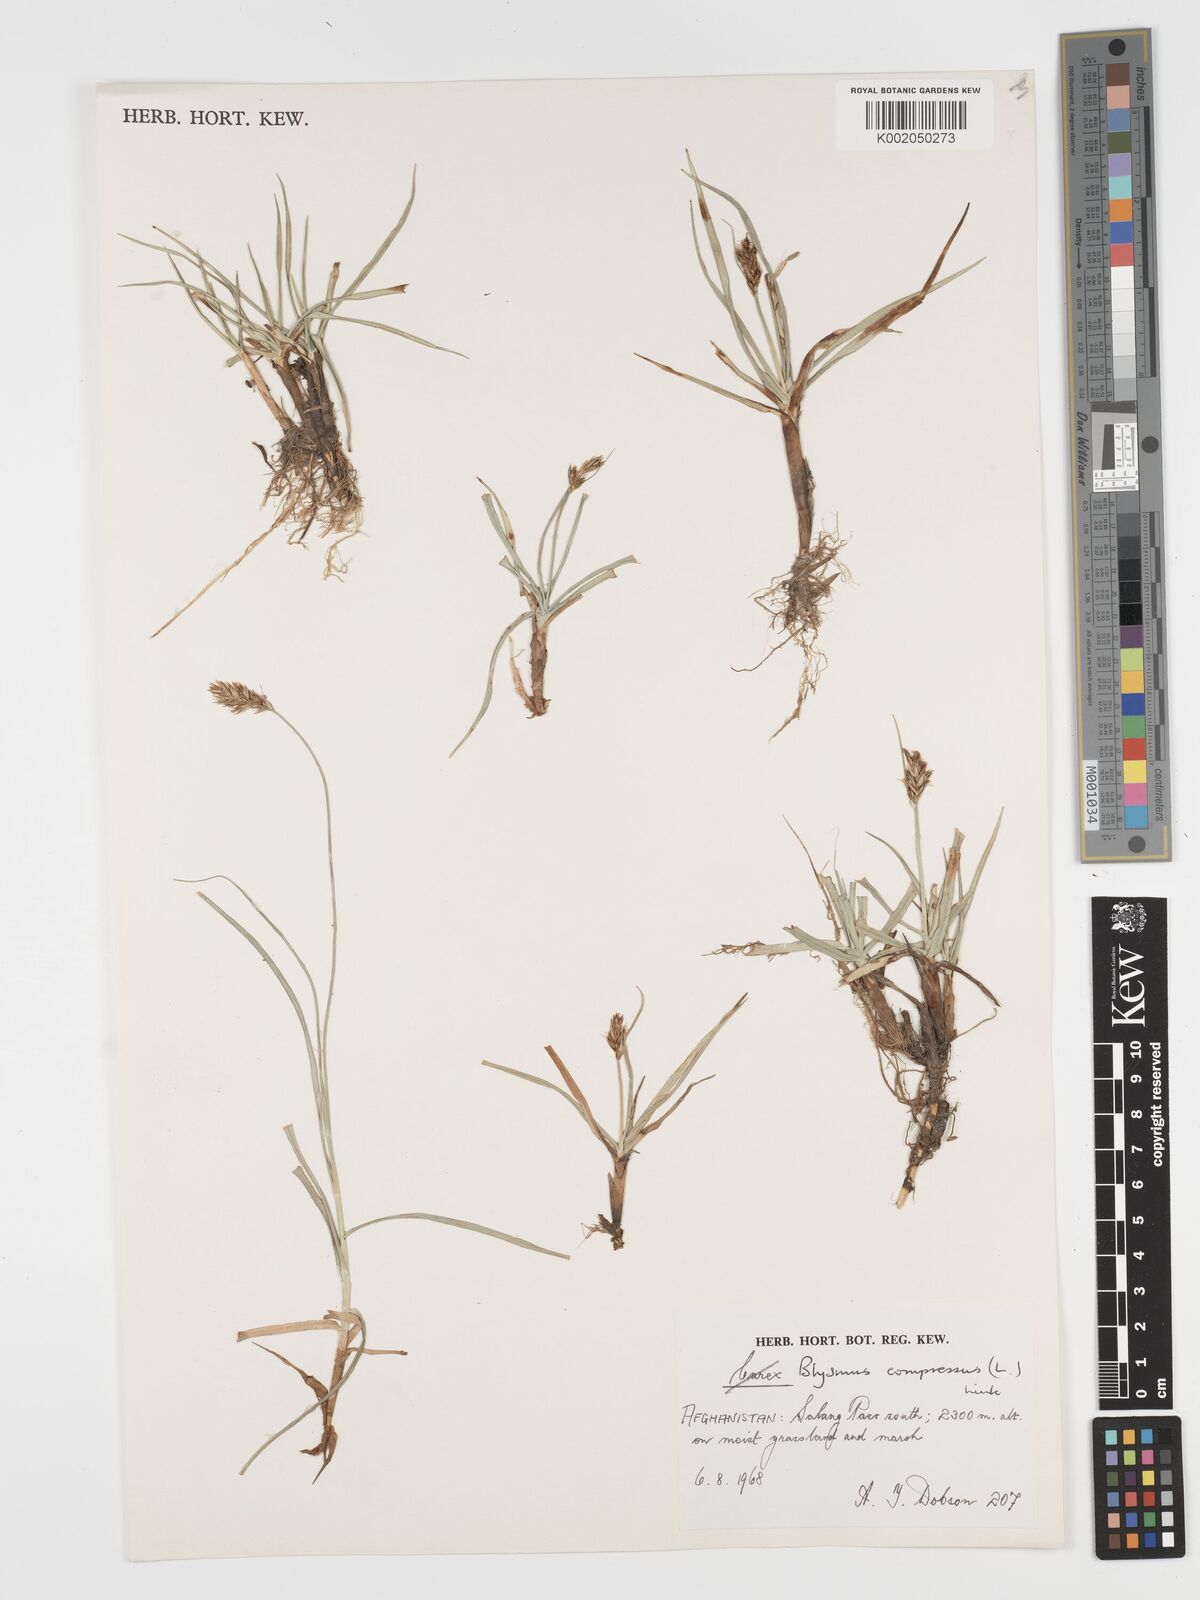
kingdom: Plantae
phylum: Tracheophyta
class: Liliopsida
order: Poales
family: Cyperaceae
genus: Blysmus
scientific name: Blysmus compressus
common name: Flat-sedge
